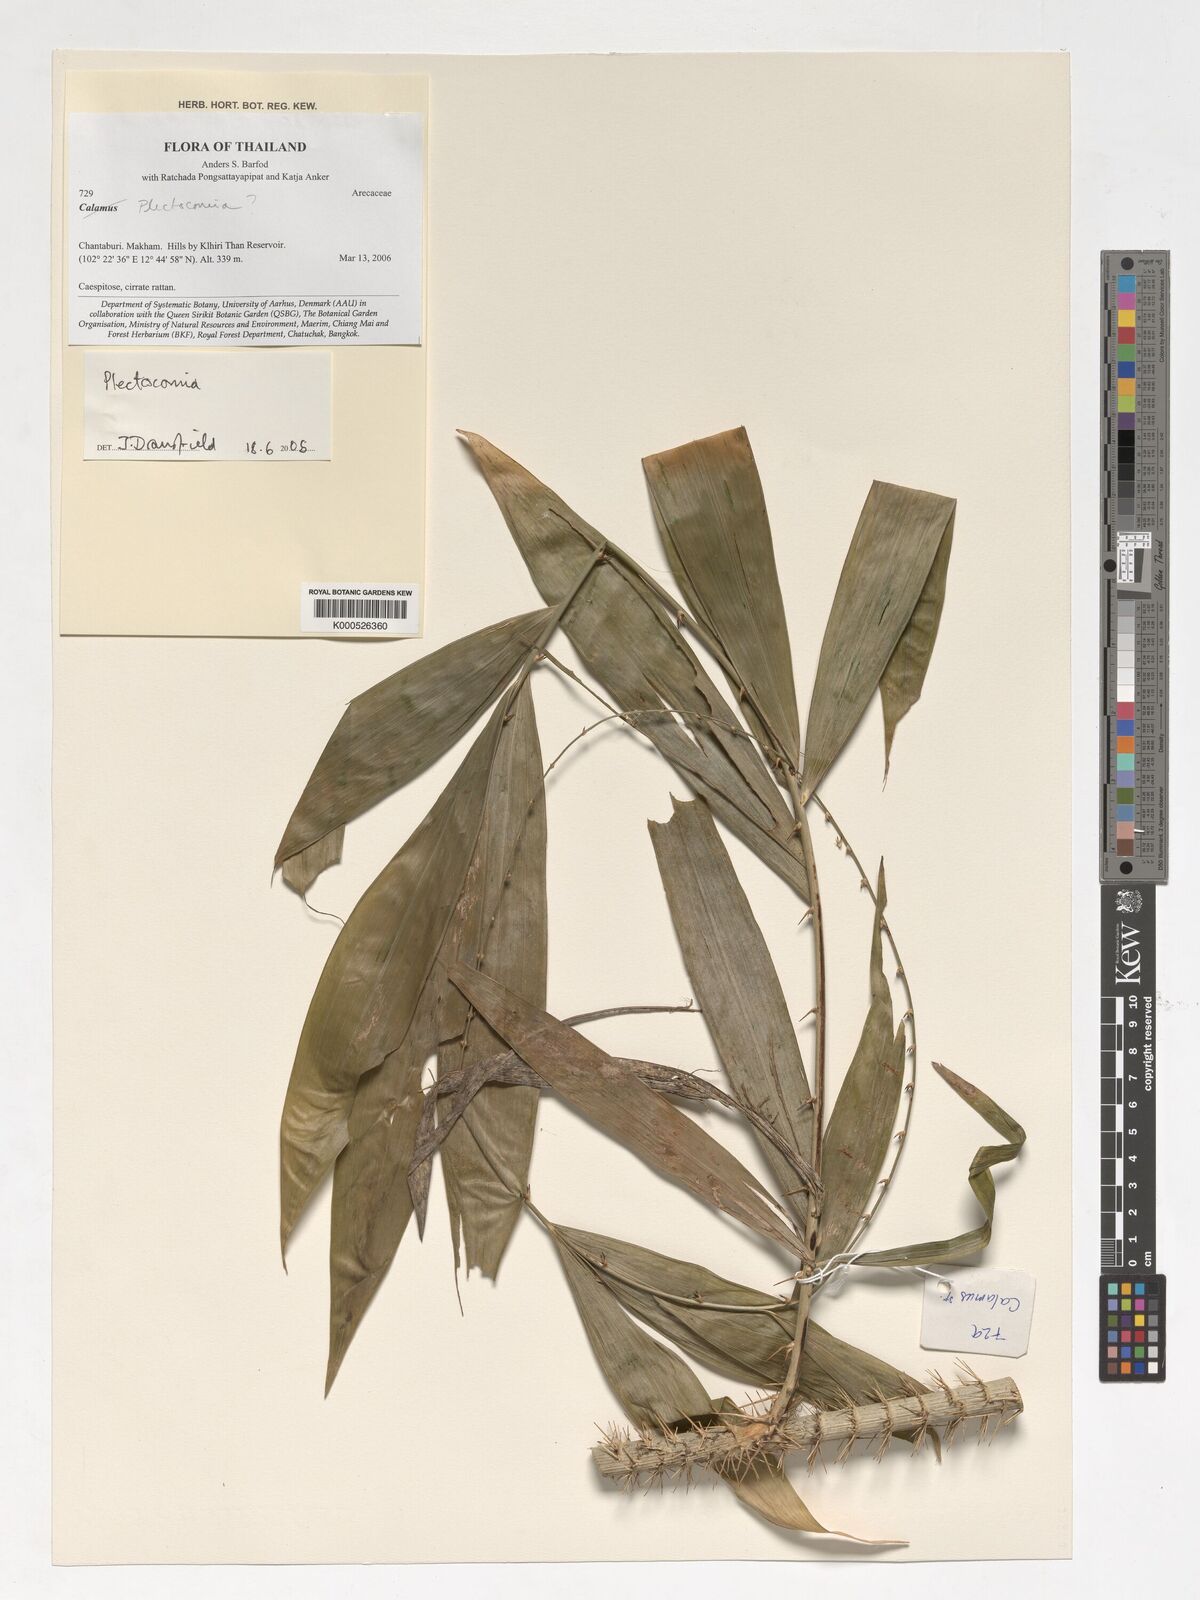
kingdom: Plantae
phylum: Tracheophyta
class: Liliopsida
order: Arecales
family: Arecaceae
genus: Plectocomia
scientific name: Plectocomia
